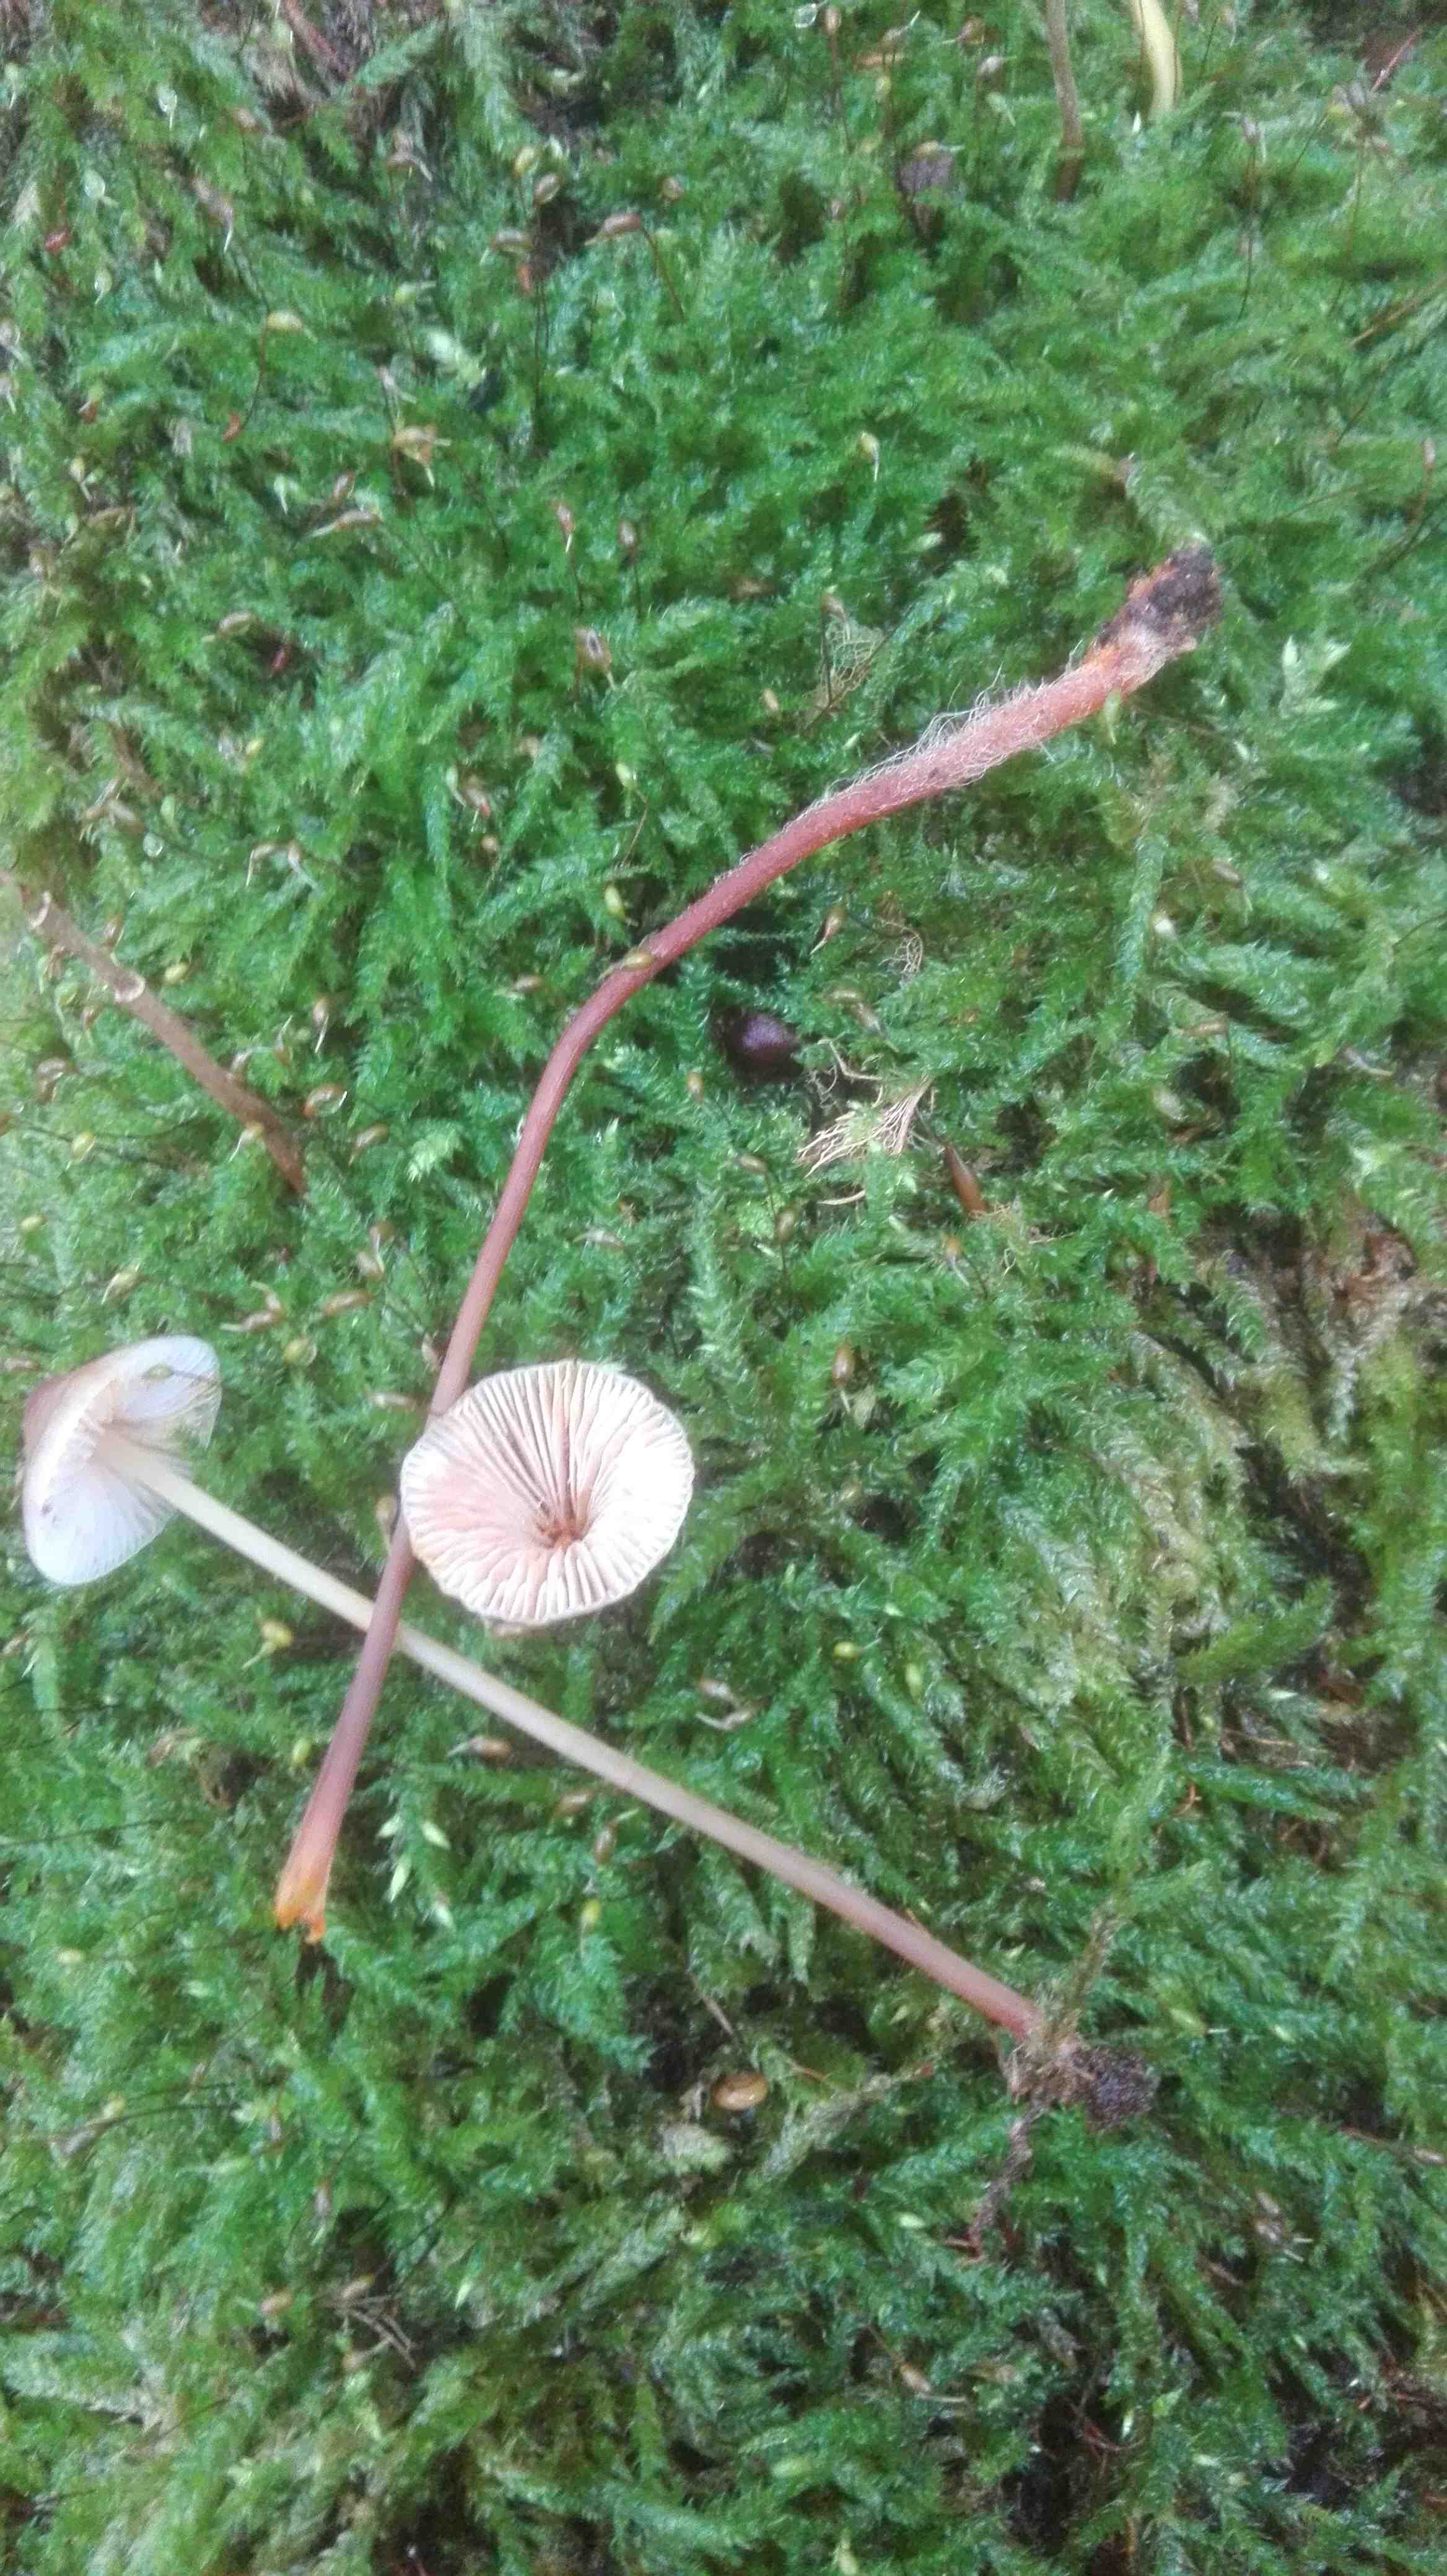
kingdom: Fungi
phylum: Basidiomycota
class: Agaricomycetes
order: Agaricales
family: Mycenaceae
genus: Mycena
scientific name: Mycena crocata
